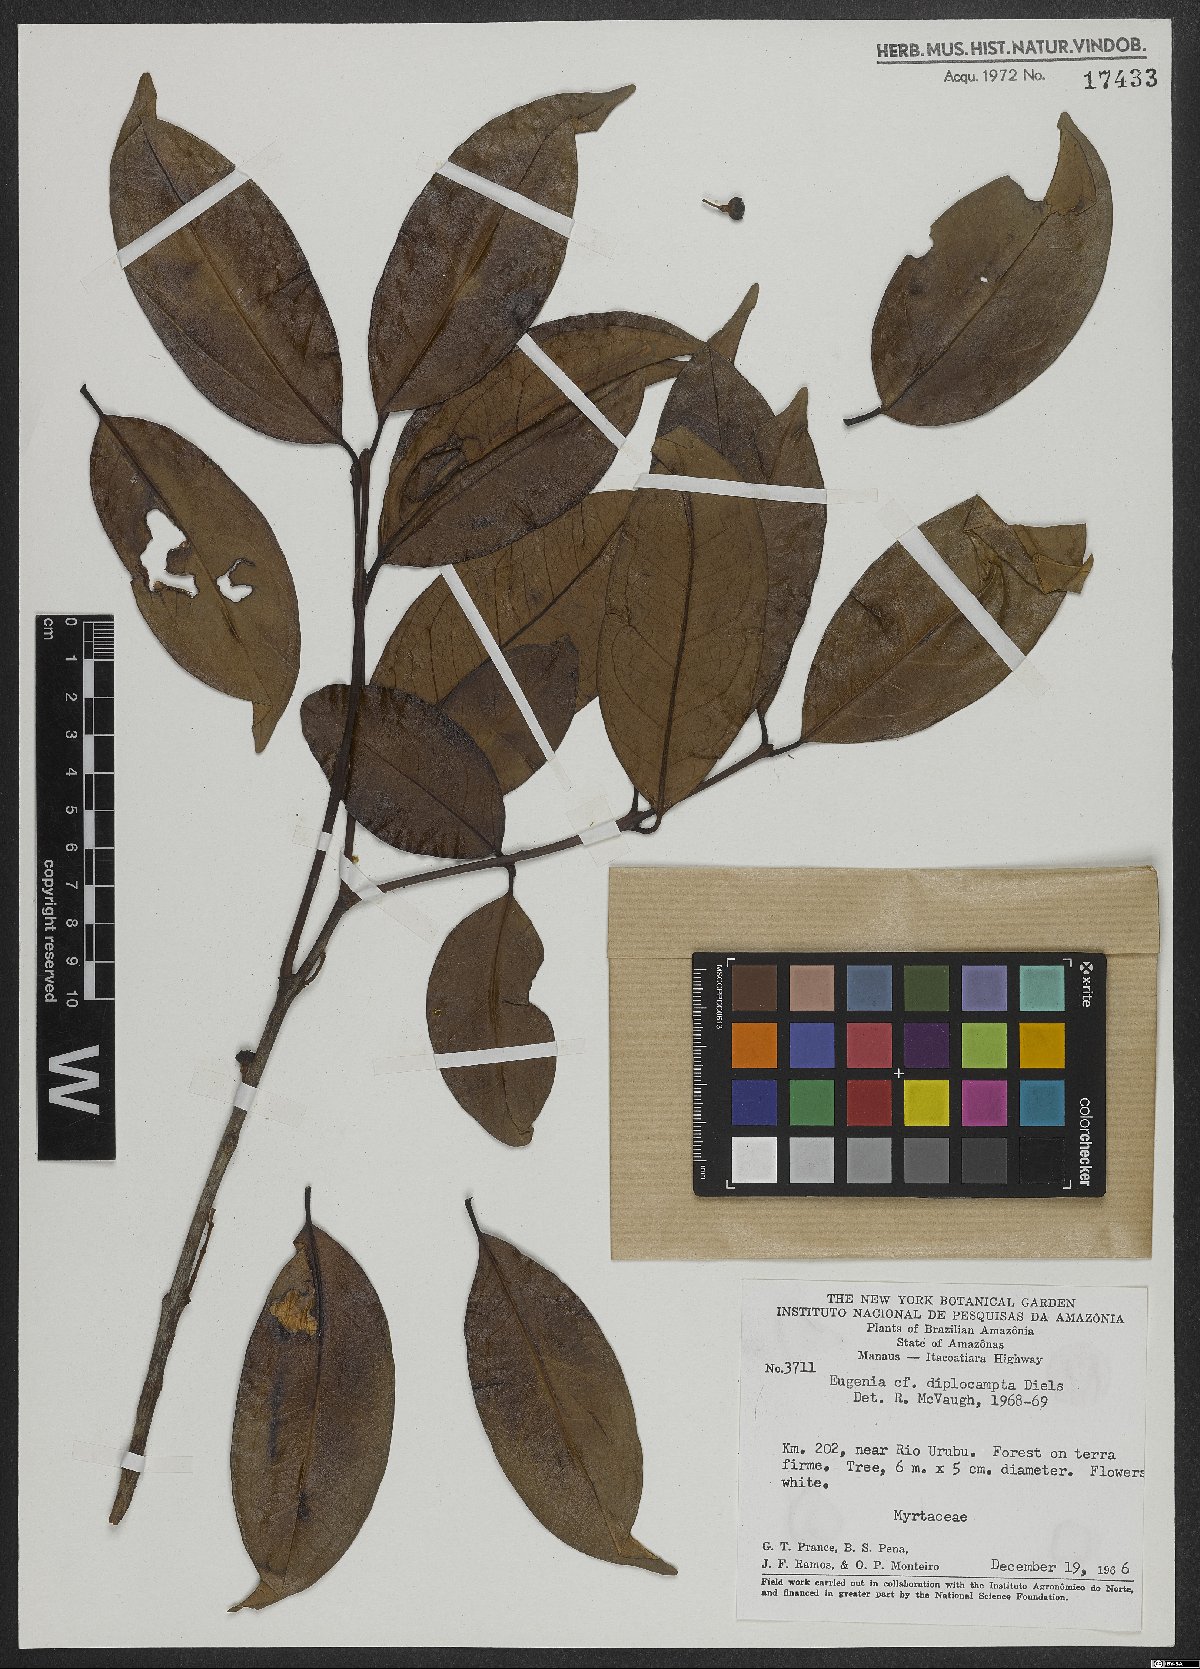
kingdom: Plantae
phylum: Tracheophyta
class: Magnoliopsida
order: Myrtales
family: Myrtaceae
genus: Eugenia
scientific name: Eugenia joseramosii
